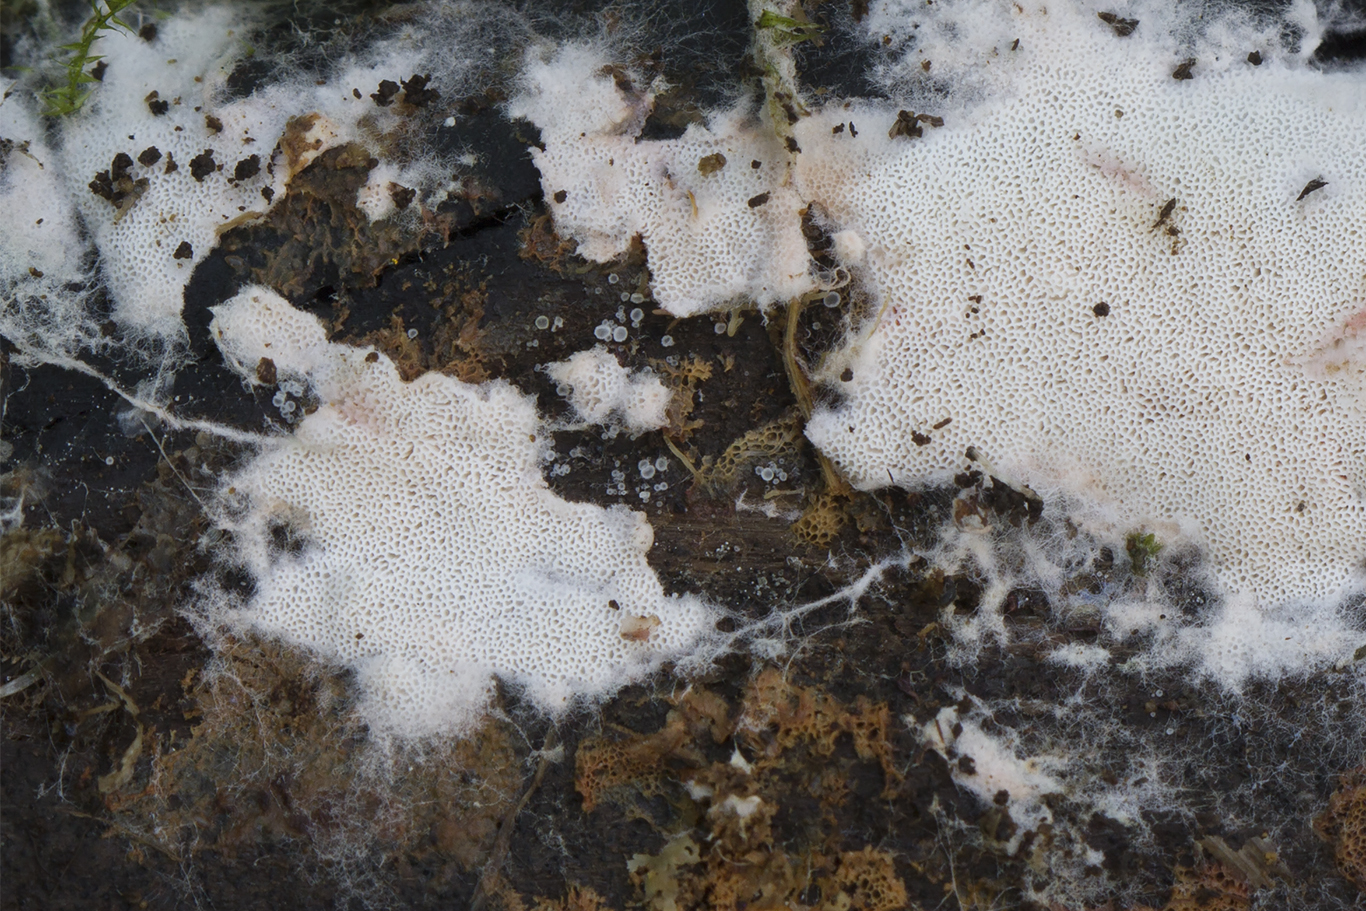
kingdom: Fungi
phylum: Basidiomycota
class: Agaricomycetes
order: Polyporales
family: Irpicaceae
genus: Ceriporia
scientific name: Ceriporia viridans
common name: foranderlig voksporesvamp
